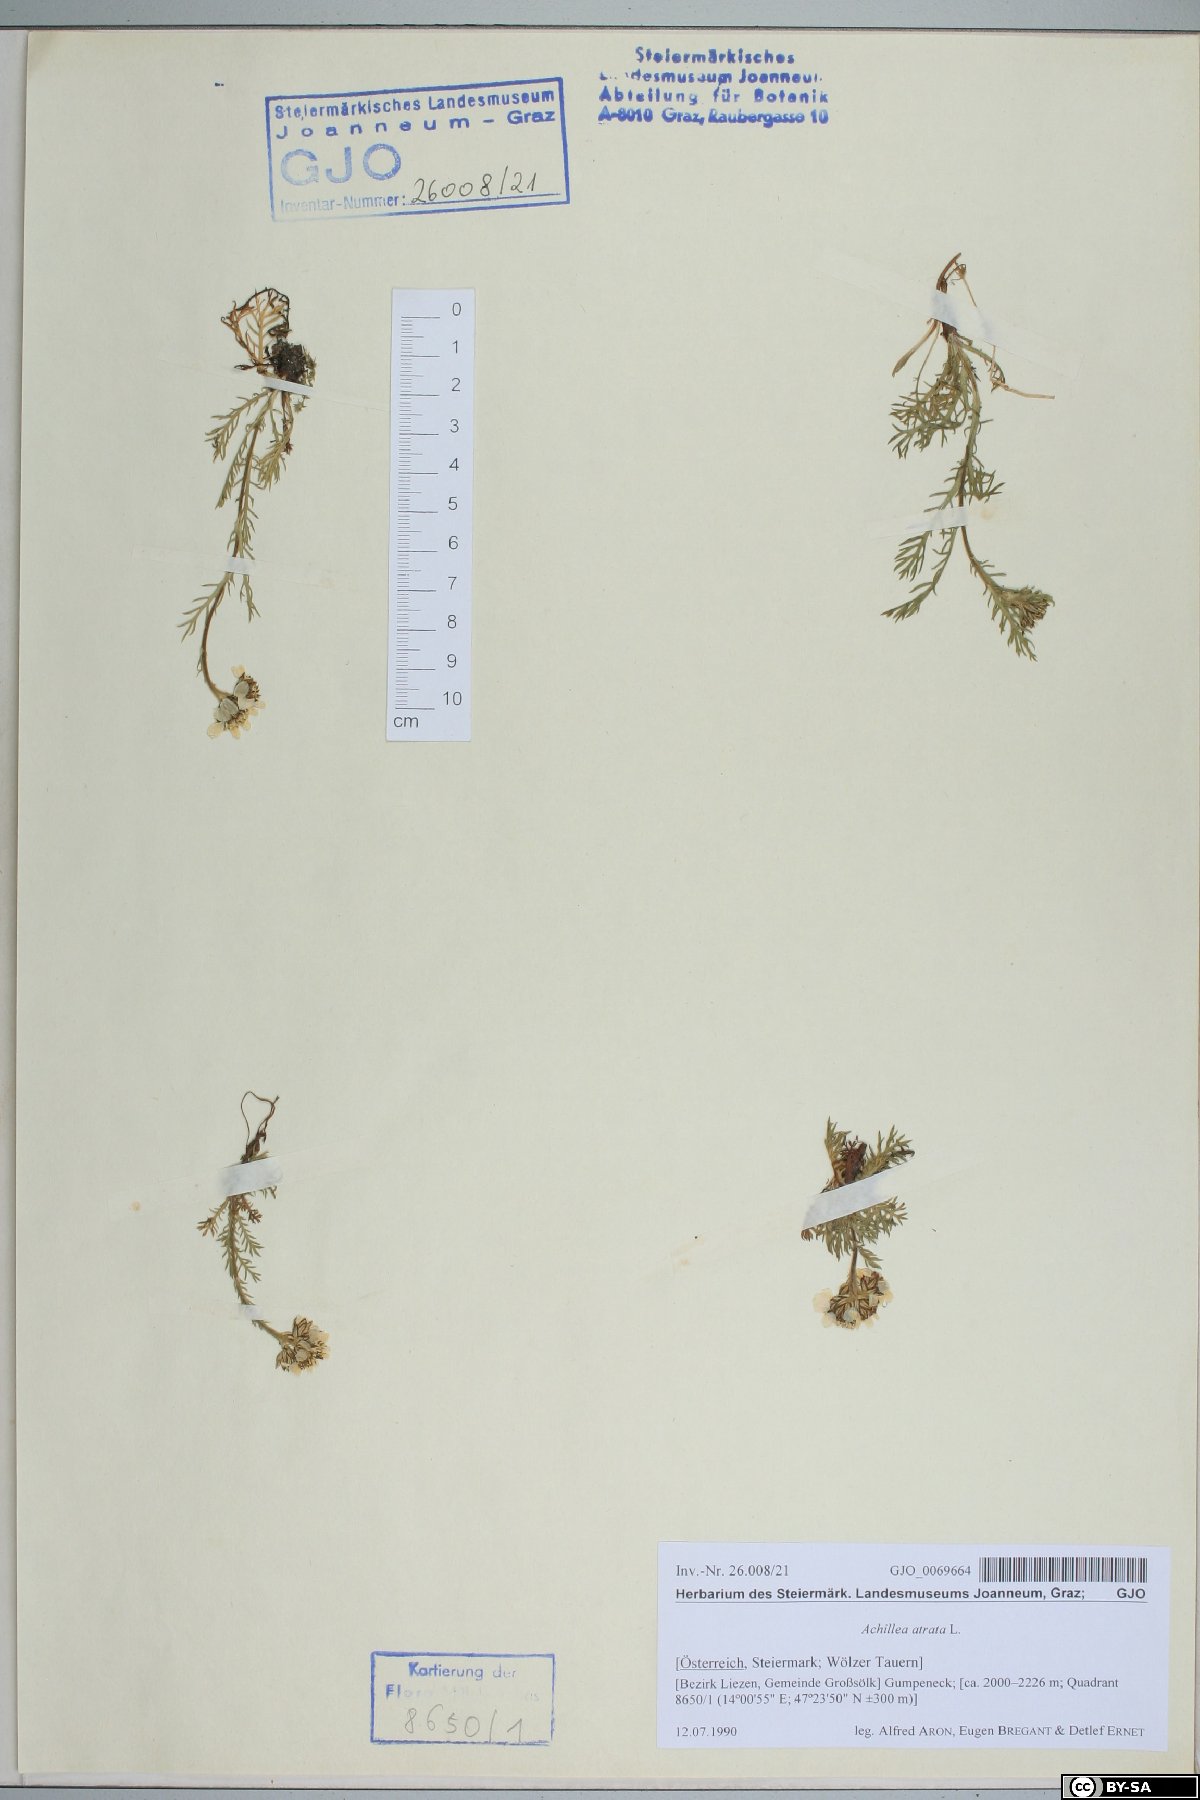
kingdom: Plantae
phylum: Tracheophyta
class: Magnoliopsida
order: Asterales
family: Asteraceae
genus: Achillea
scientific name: Achillea atrata
